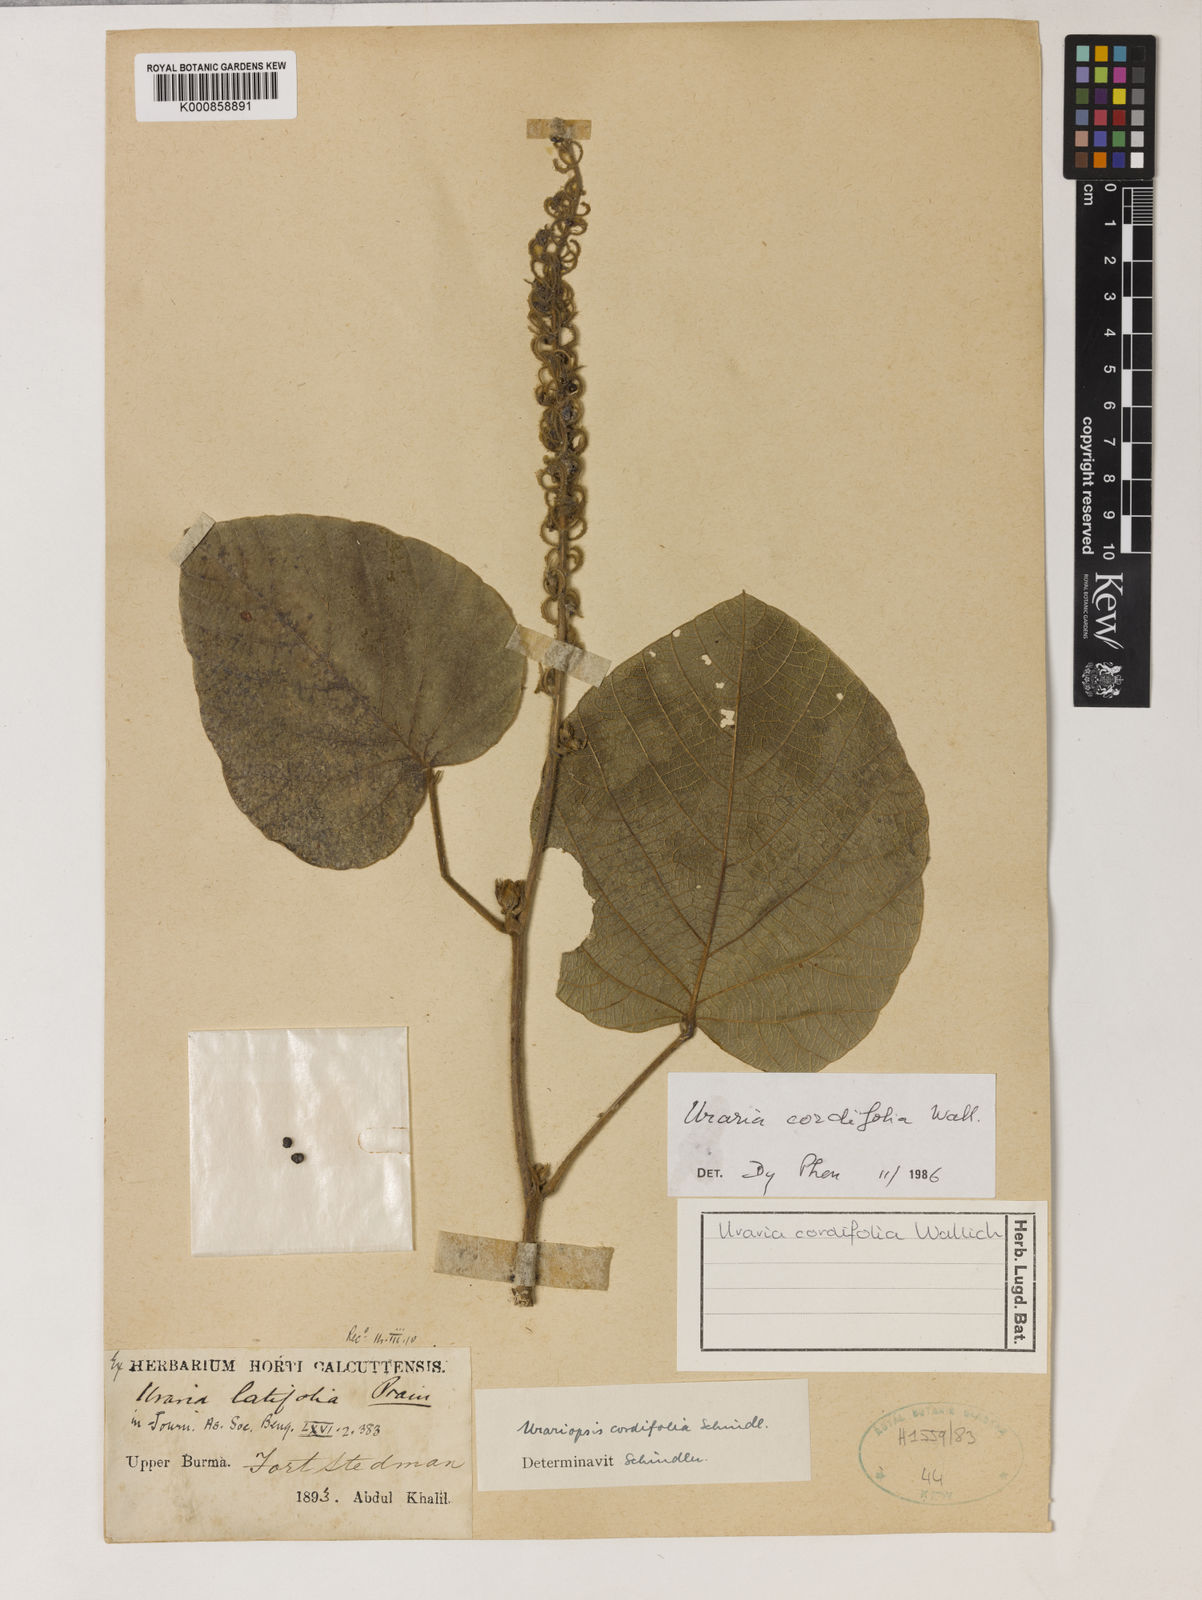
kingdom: Plantae
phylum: Tracheophyta
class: Magnoliopsida
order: Fabales
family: Fabaceae
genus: Uraria
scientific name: Uraria cordifolia
